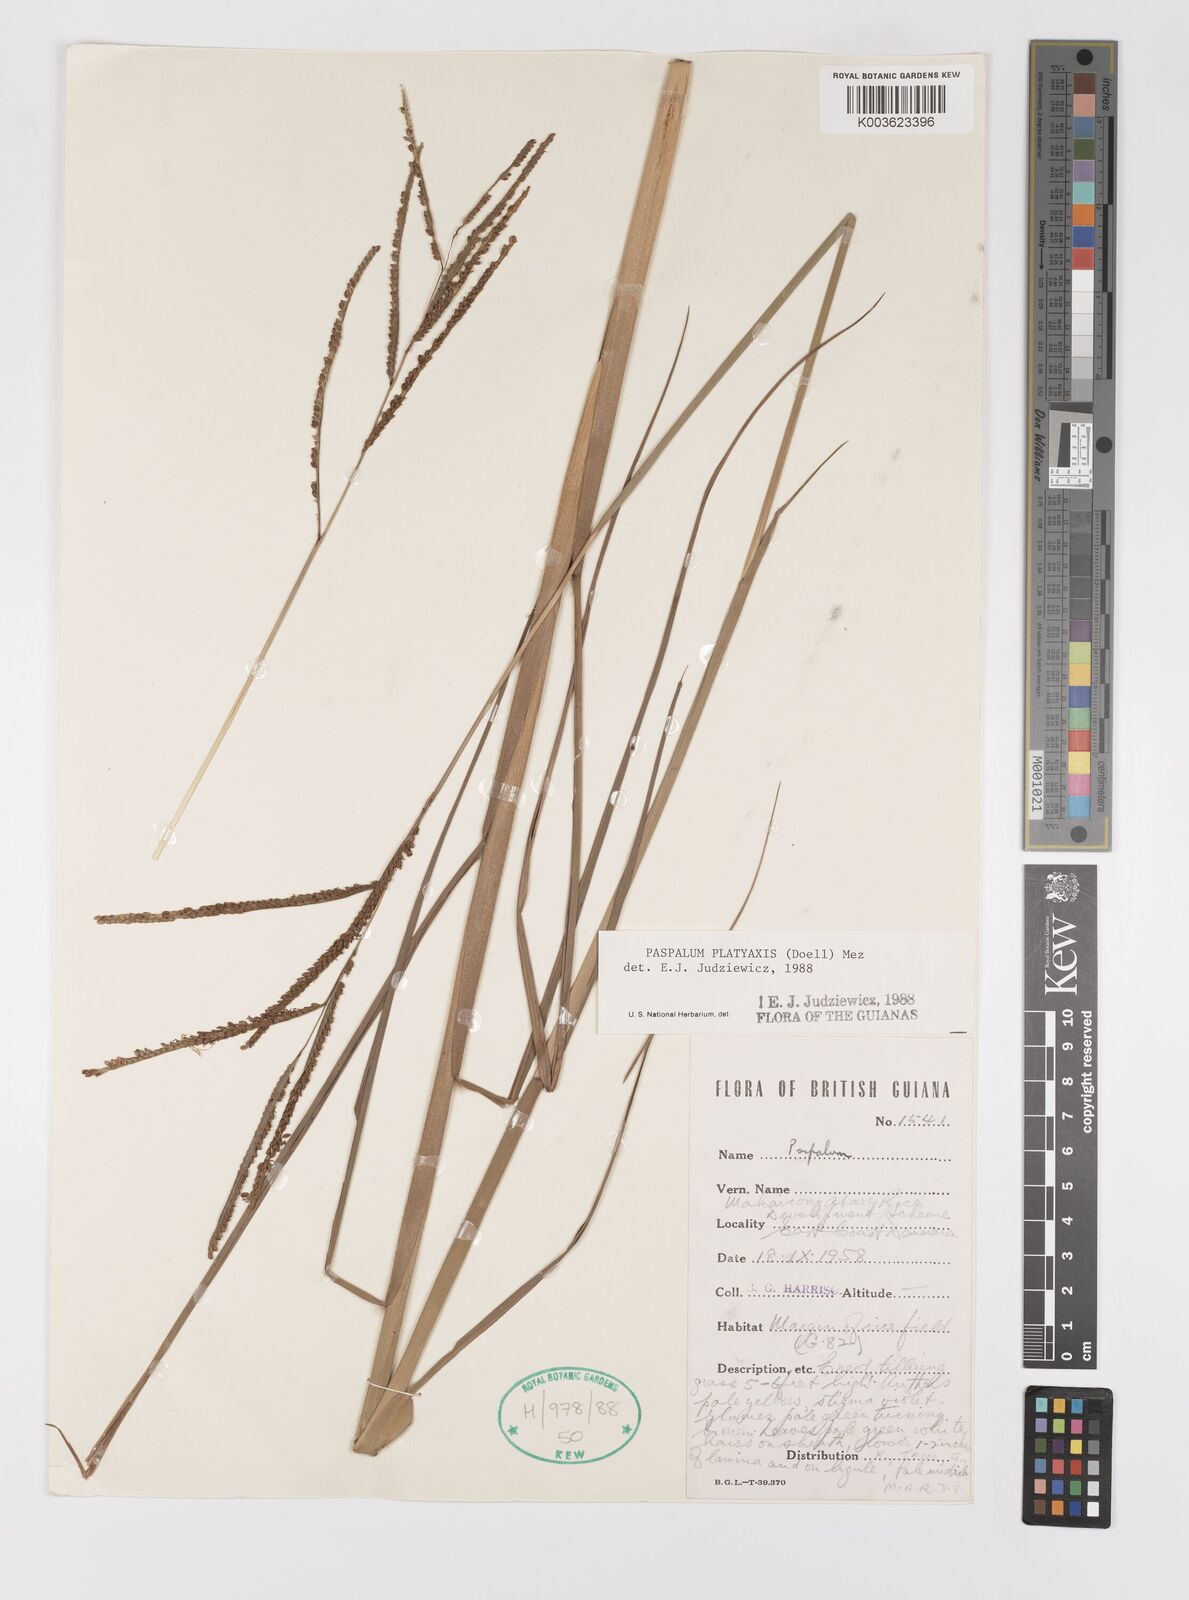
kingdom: Plantae
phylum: Tracheophyta
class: Liliopsida
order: Poales
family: Poaceae
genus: Paspalum
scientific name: Paspalum wrightii
